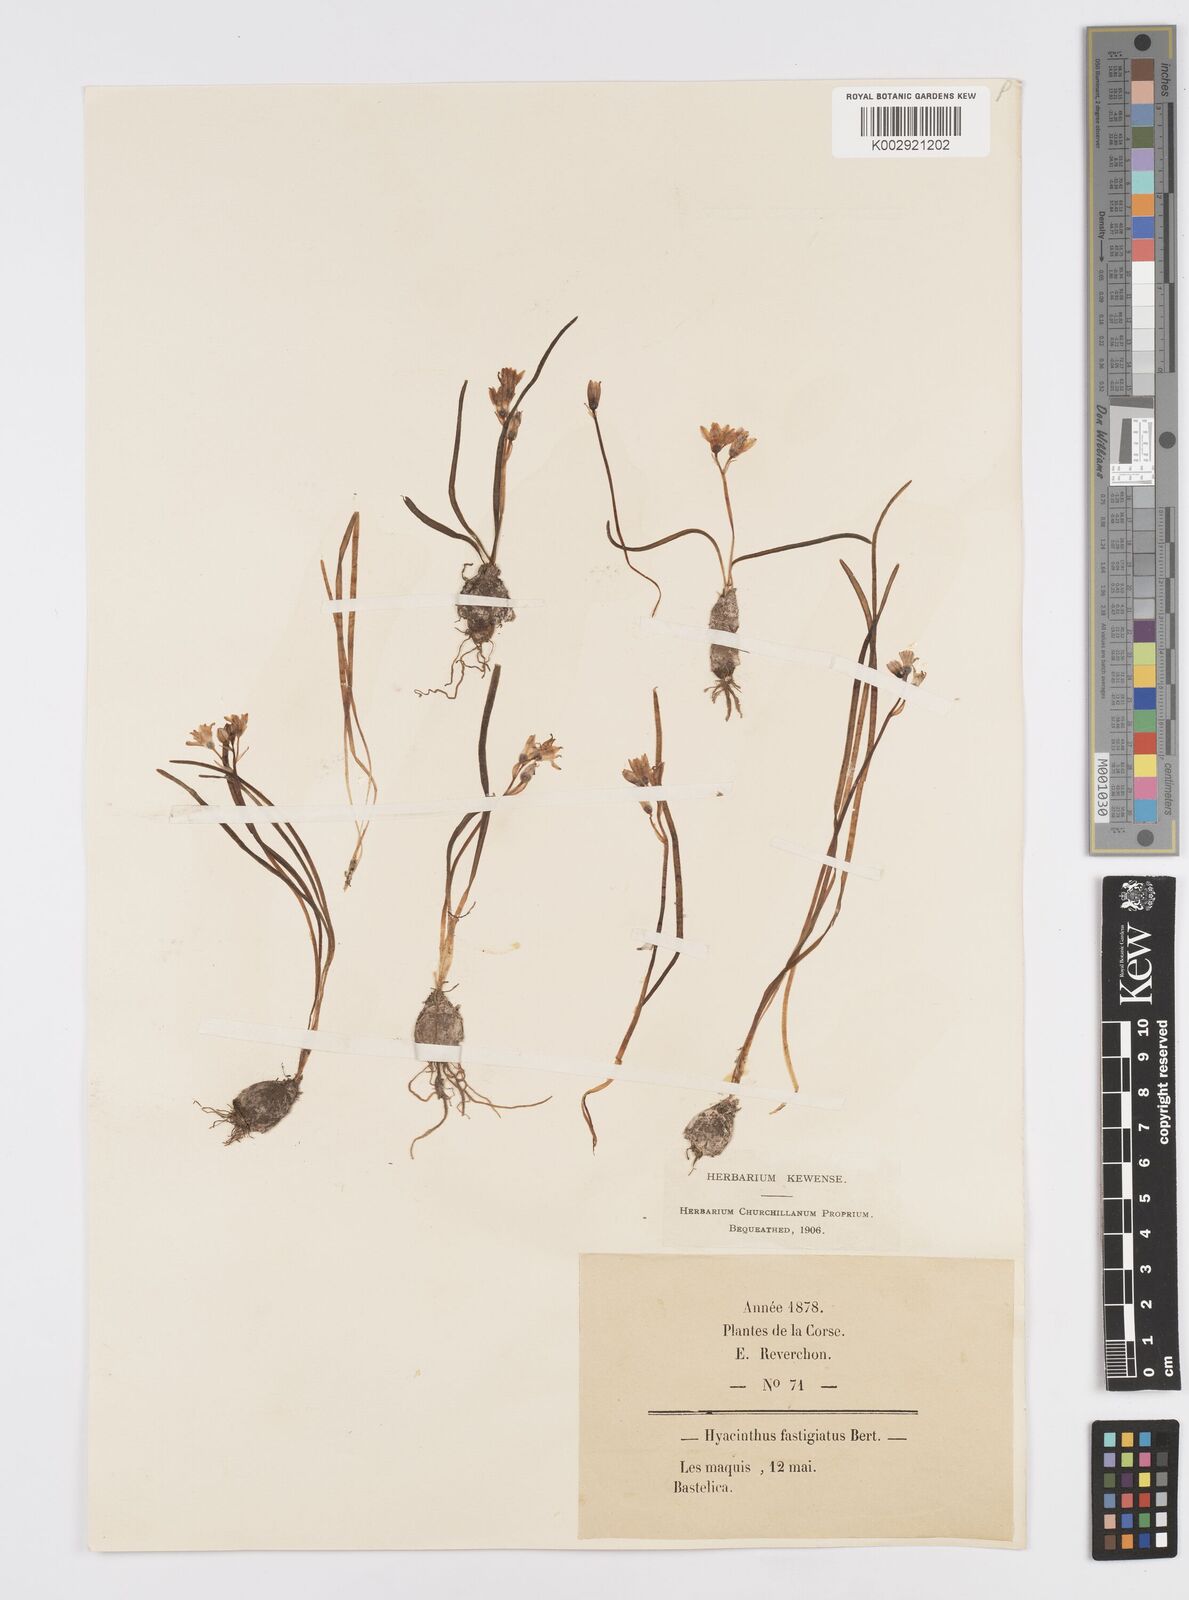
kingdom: Plantae
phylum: Tracheophyta
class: Liliopsida
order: Asparagales
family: Asparagaceae
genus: Brimeura
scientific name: Brimeura fastigiata
